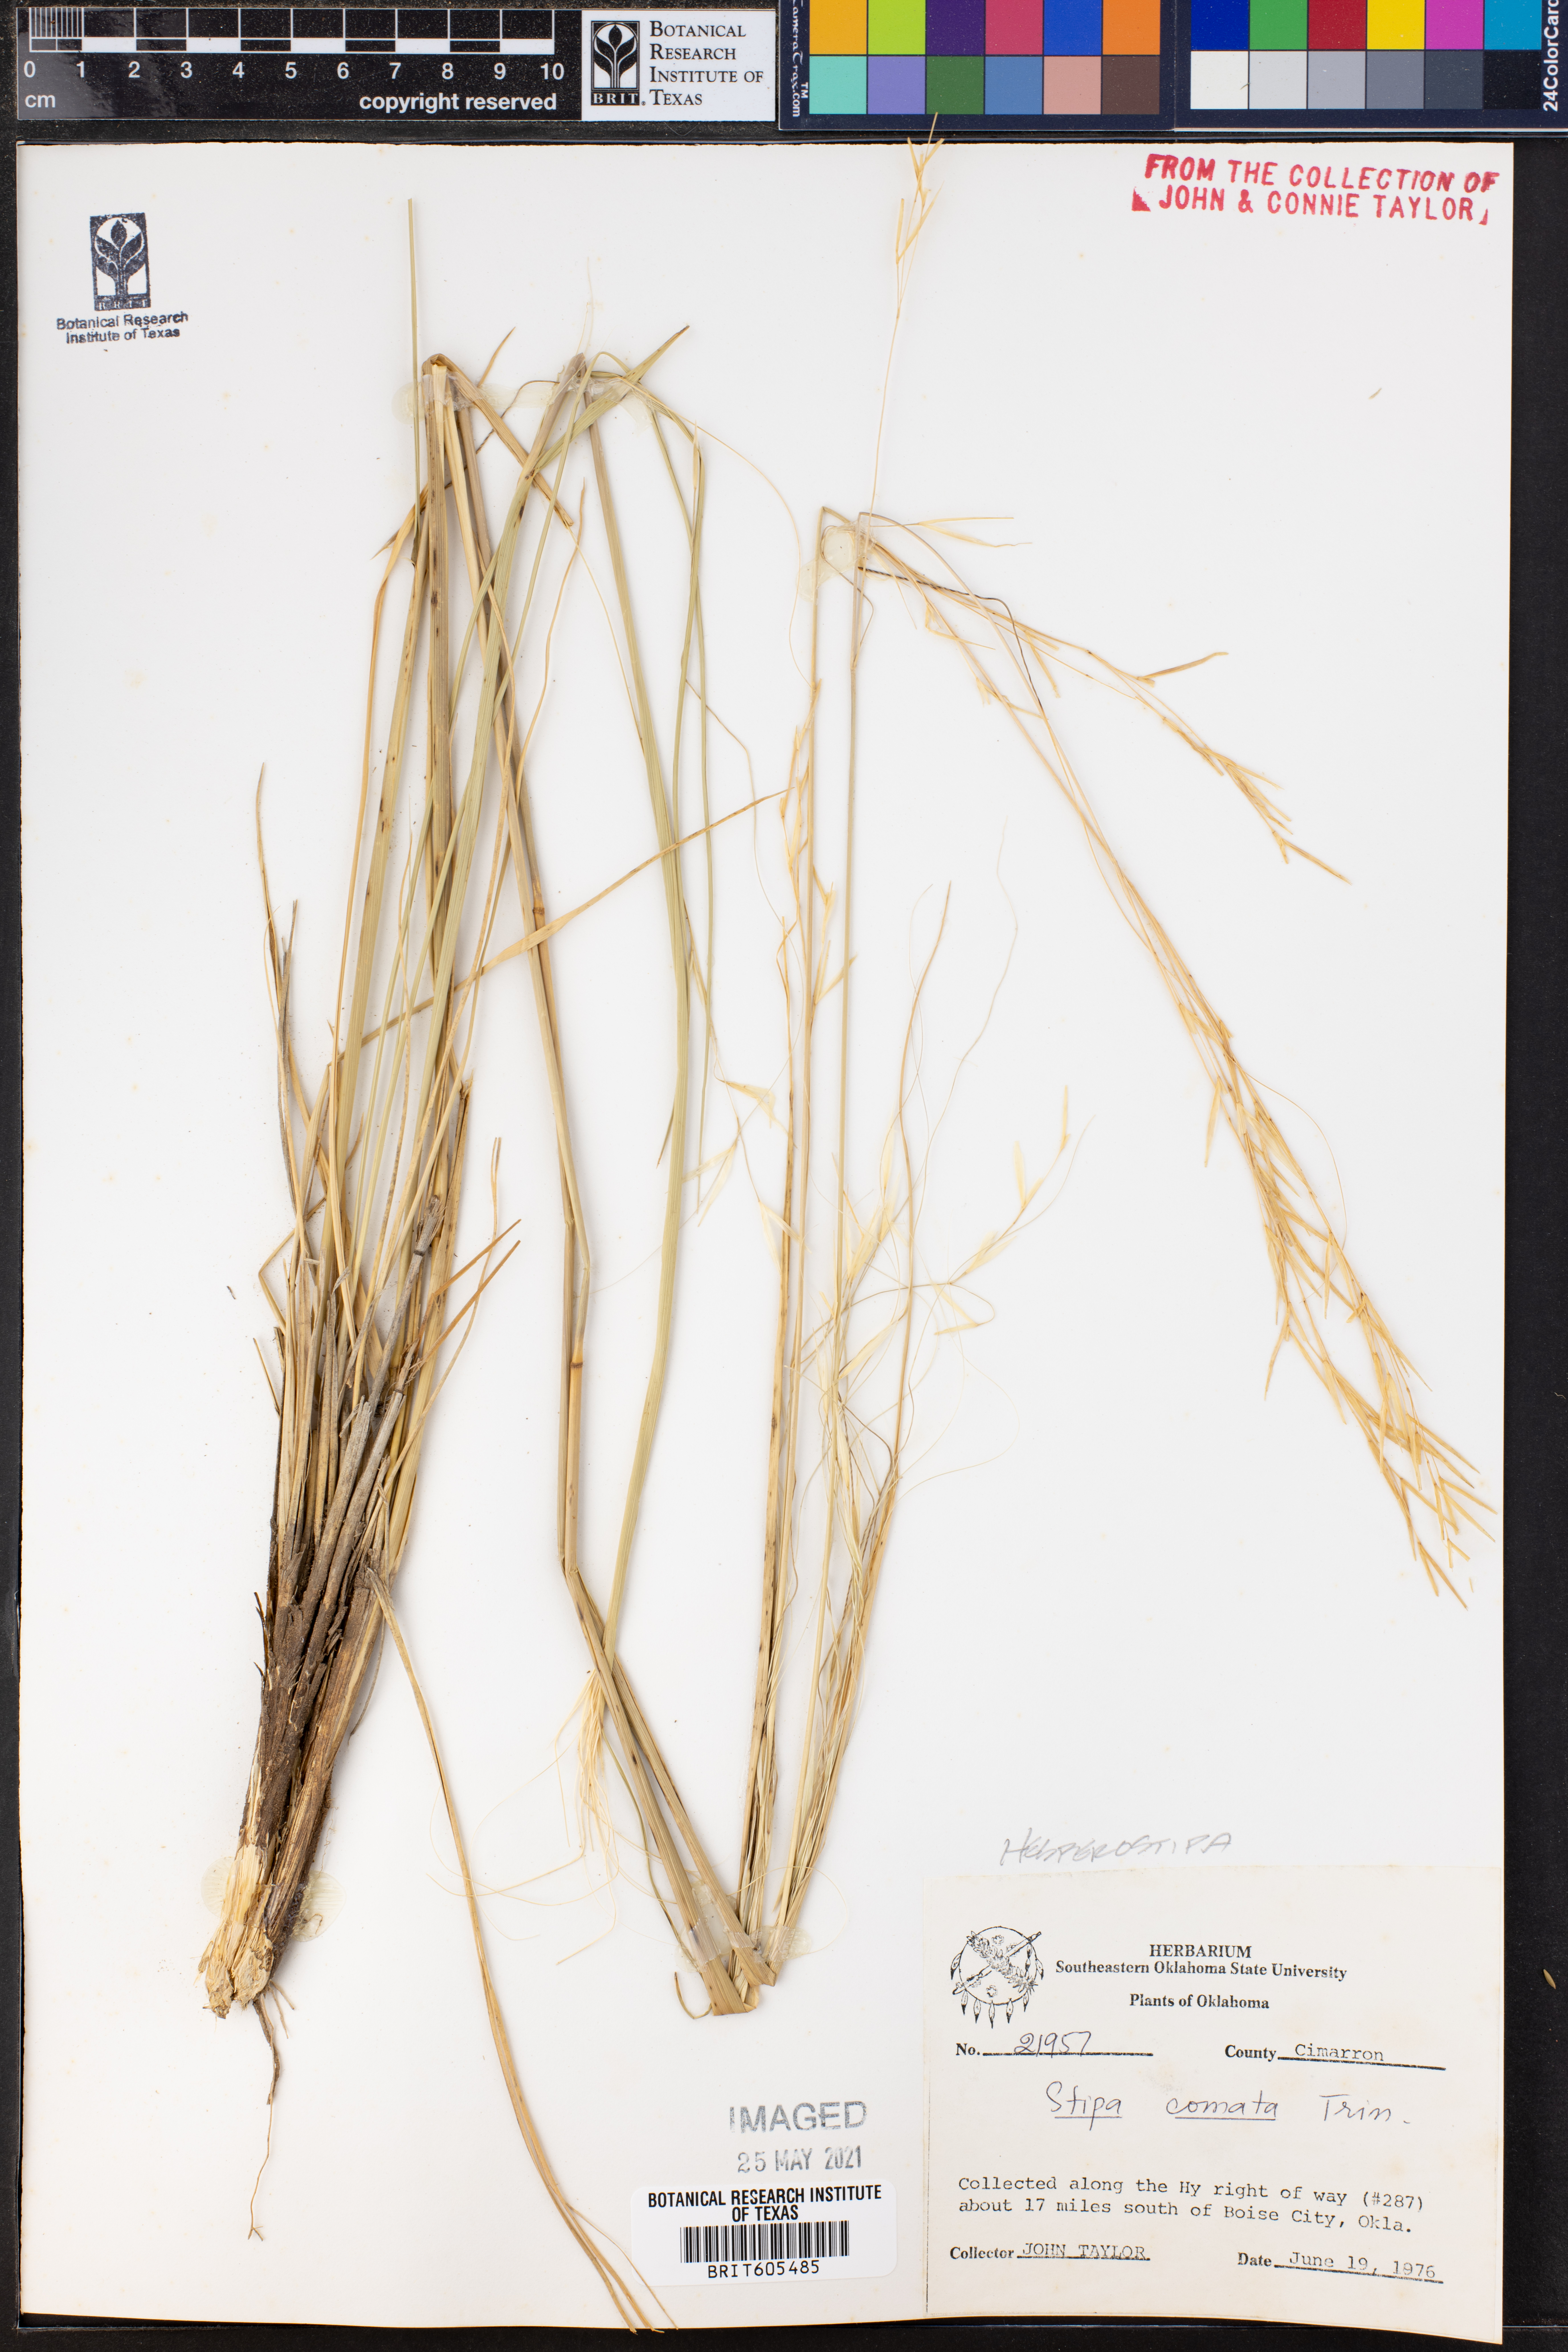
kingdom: Plantae
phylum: Tracheophyta
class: Liliopsida
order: Poales
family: Poaceae
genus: Hesperostipa
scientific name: Hesperostipa comata
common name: Needle-and-thread grass
